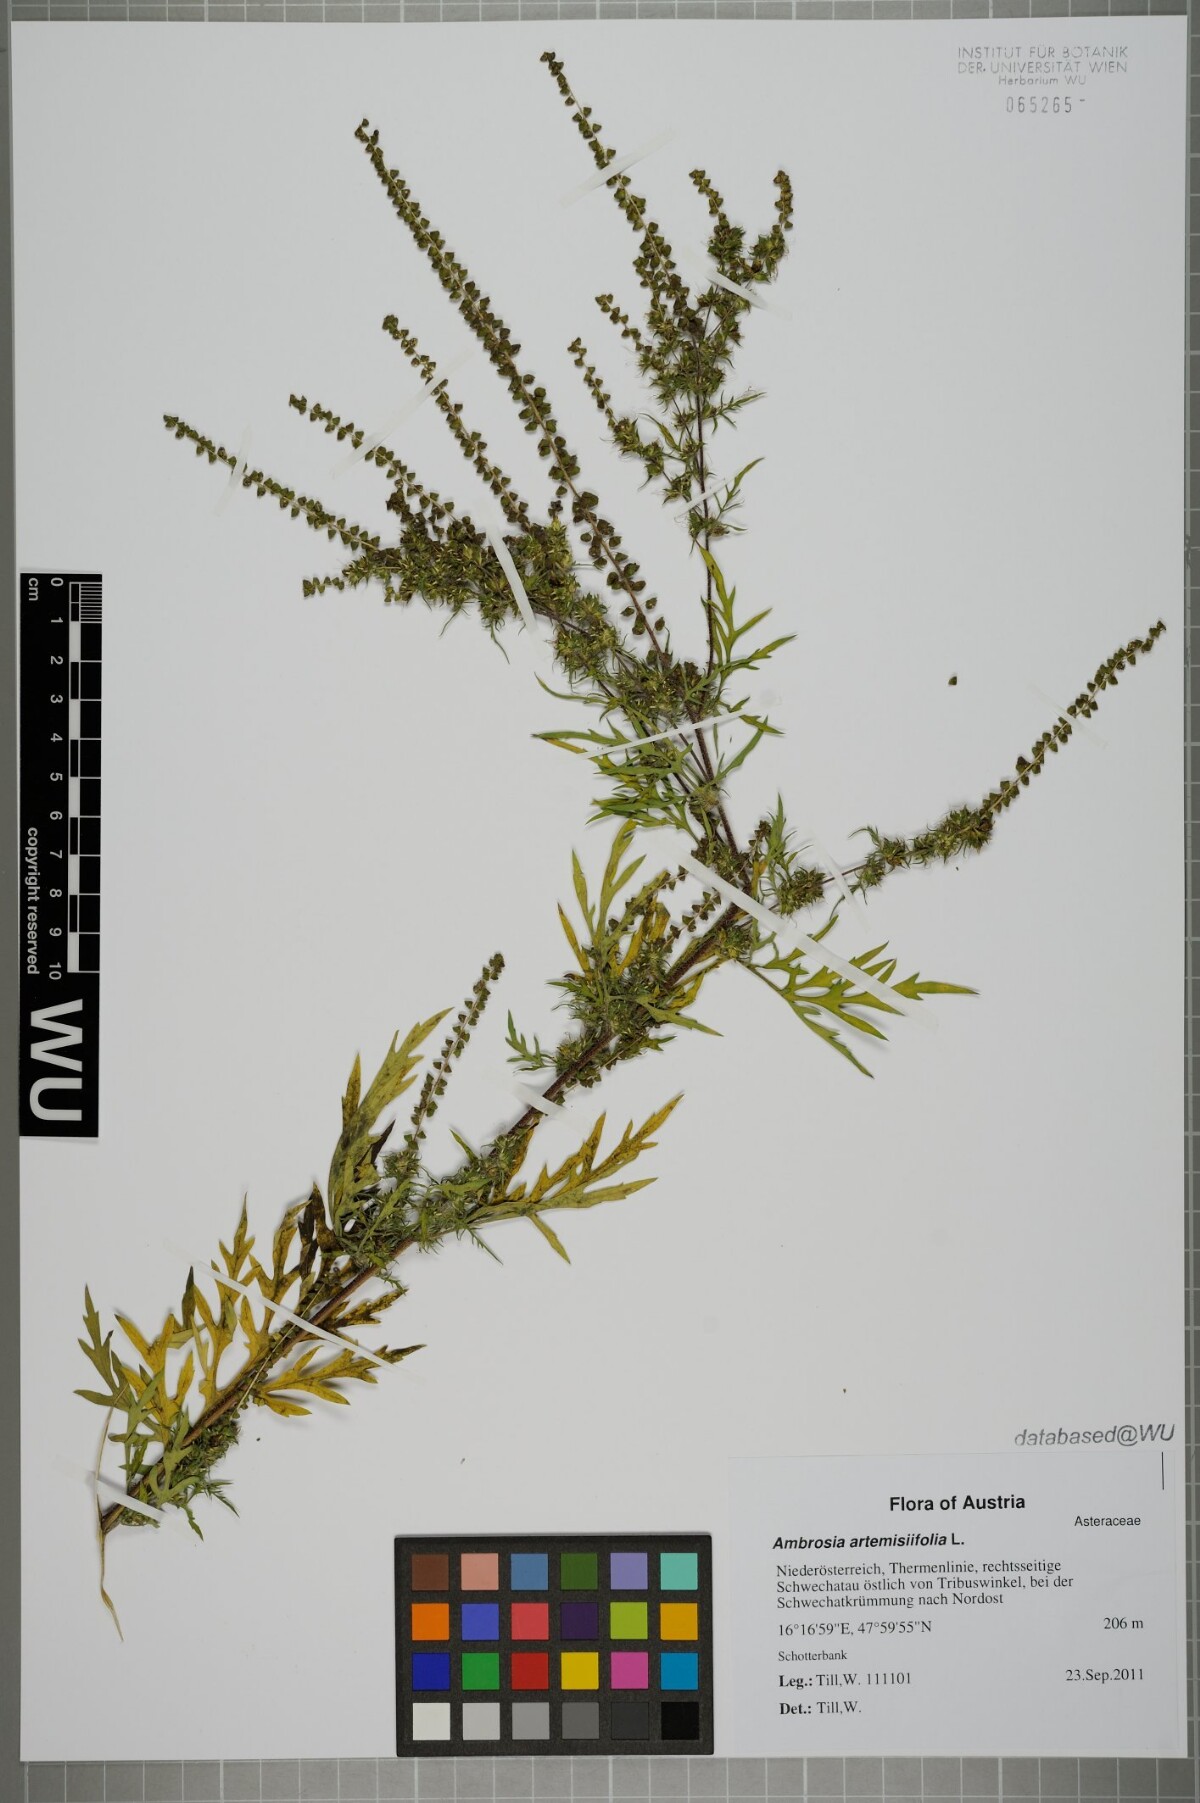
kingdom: Plantae
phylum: Tracheophyta
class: Magnoliopsida
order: Asterales
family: Asteraceae
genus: Ambrosia
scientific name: Ambrosia artemisiifolia
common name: Annual ragweed
